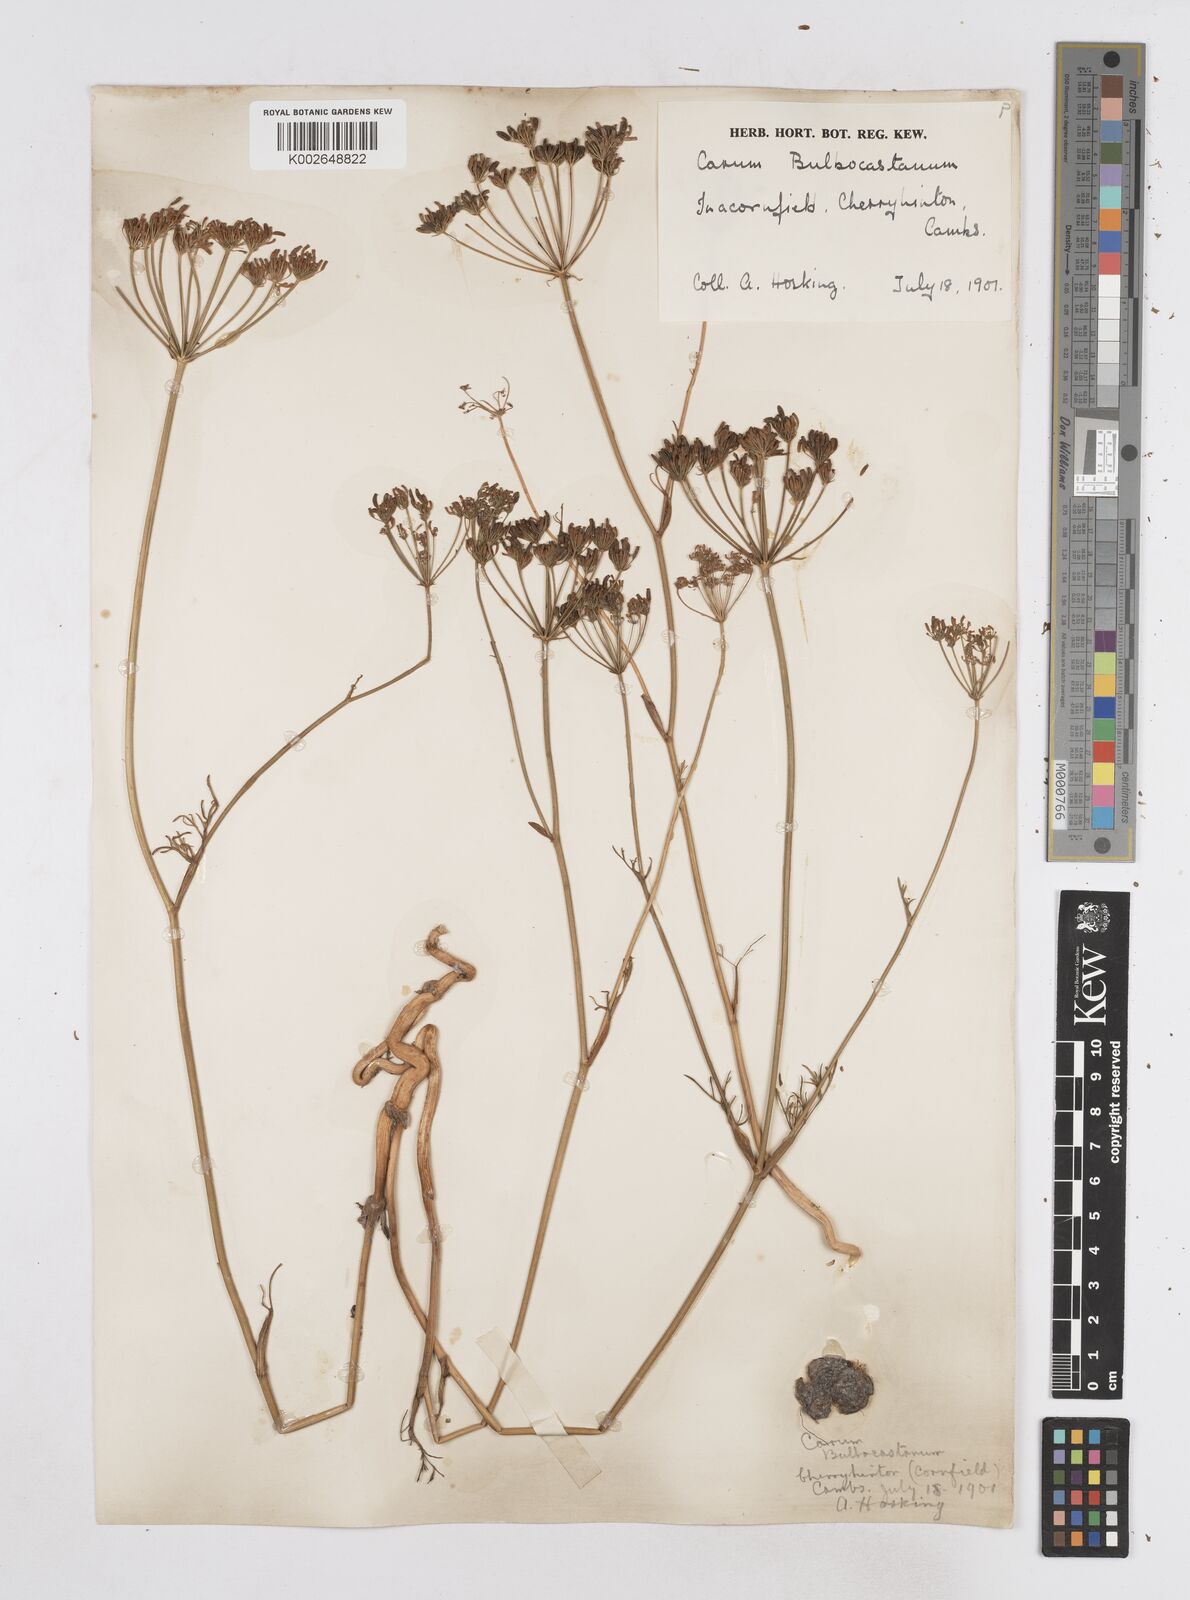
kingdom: Plantae
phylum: Tracheophyta
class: Magnoliopsida
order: Apiales
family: Apiaceae
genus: Bunium
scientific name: Bunium bulbocastanum
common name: Great pignut
